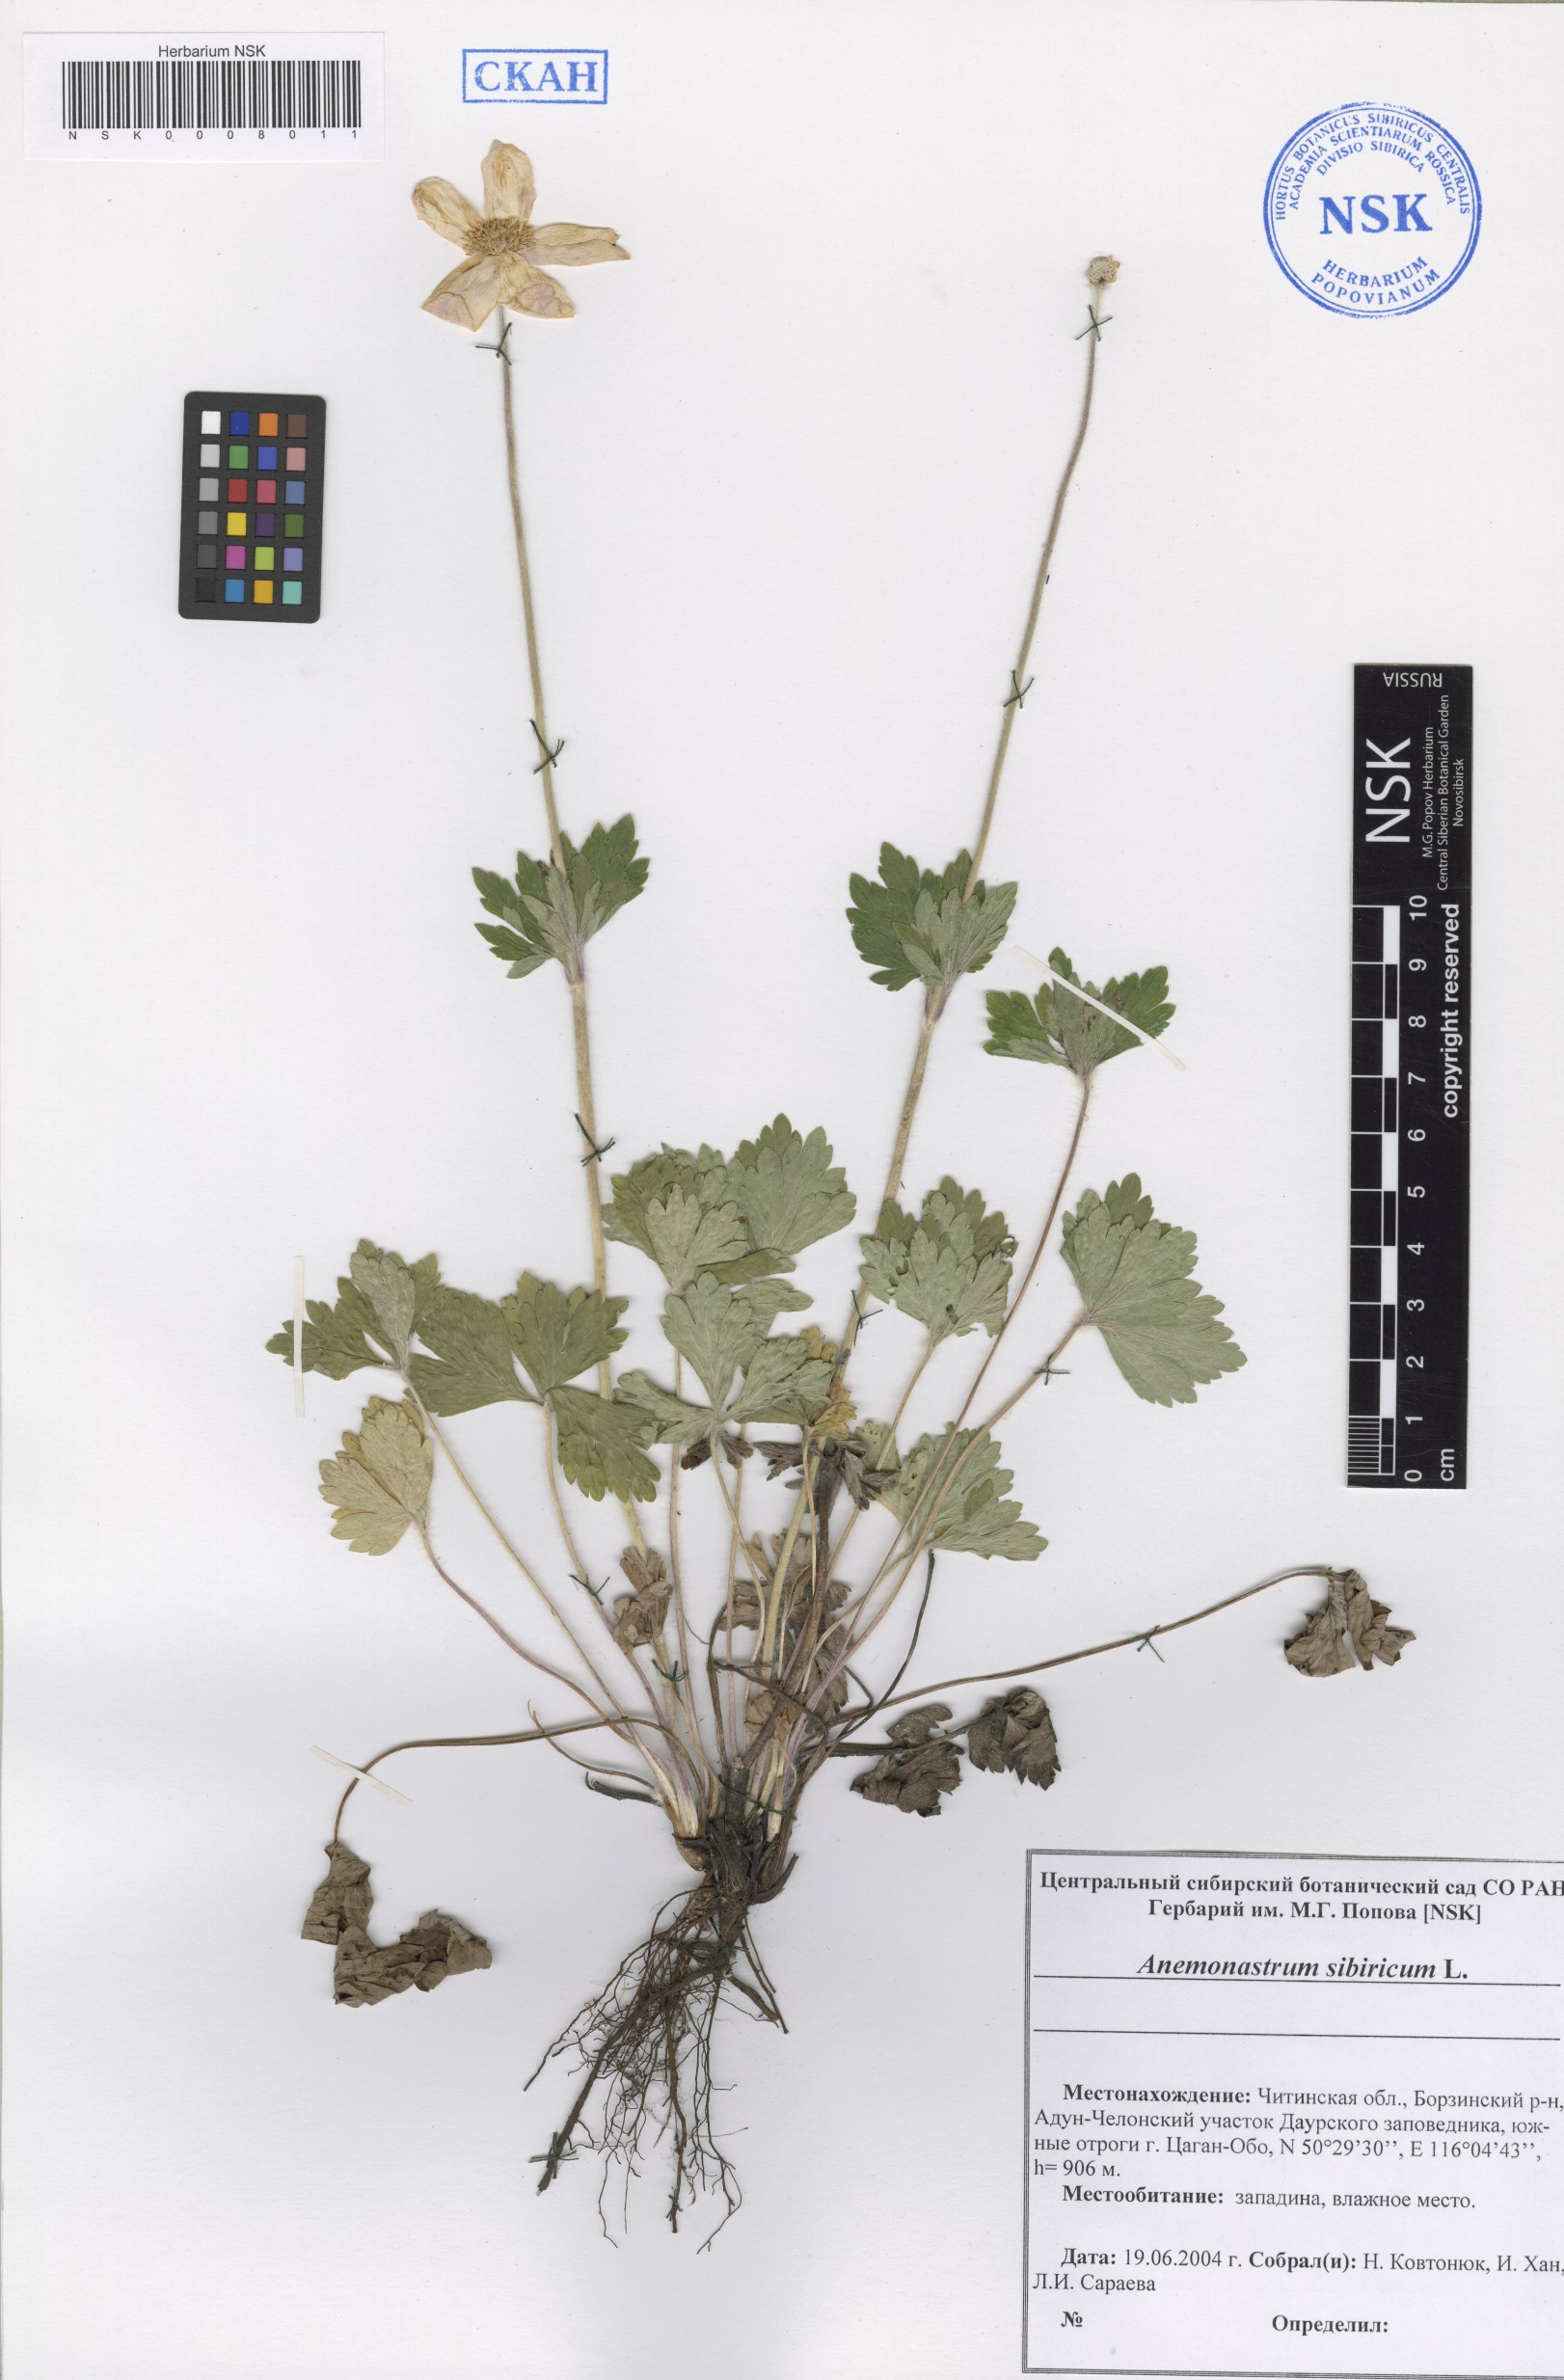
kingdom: Plantae
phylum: Tracheophyta
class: Magnoliopsida
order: Ranunculales
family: Ranunculaceae
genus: Anemonastrum
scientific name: Anemonastrum narcissiflorum
